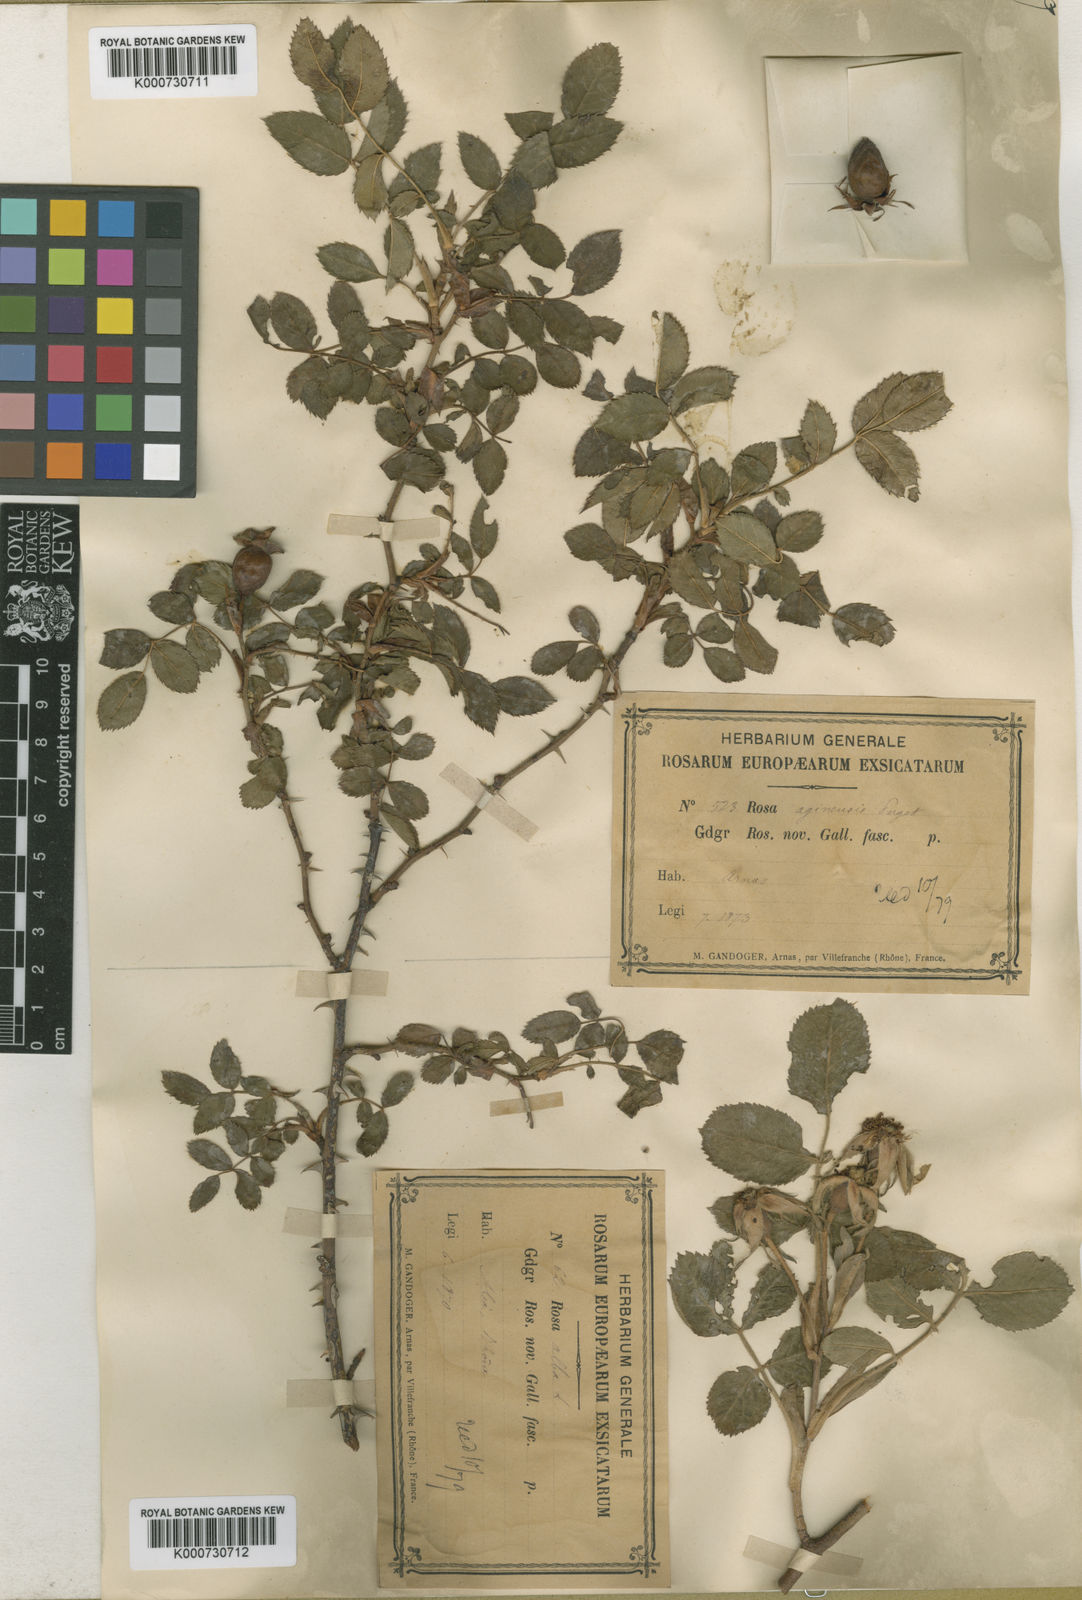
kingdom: Plantae
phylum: Tracheophyta
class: Magnoliopsida
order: Rosales
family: Rosaceae
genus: Rosa
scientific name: Rosa stylosa
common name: Short-styled field-rose
